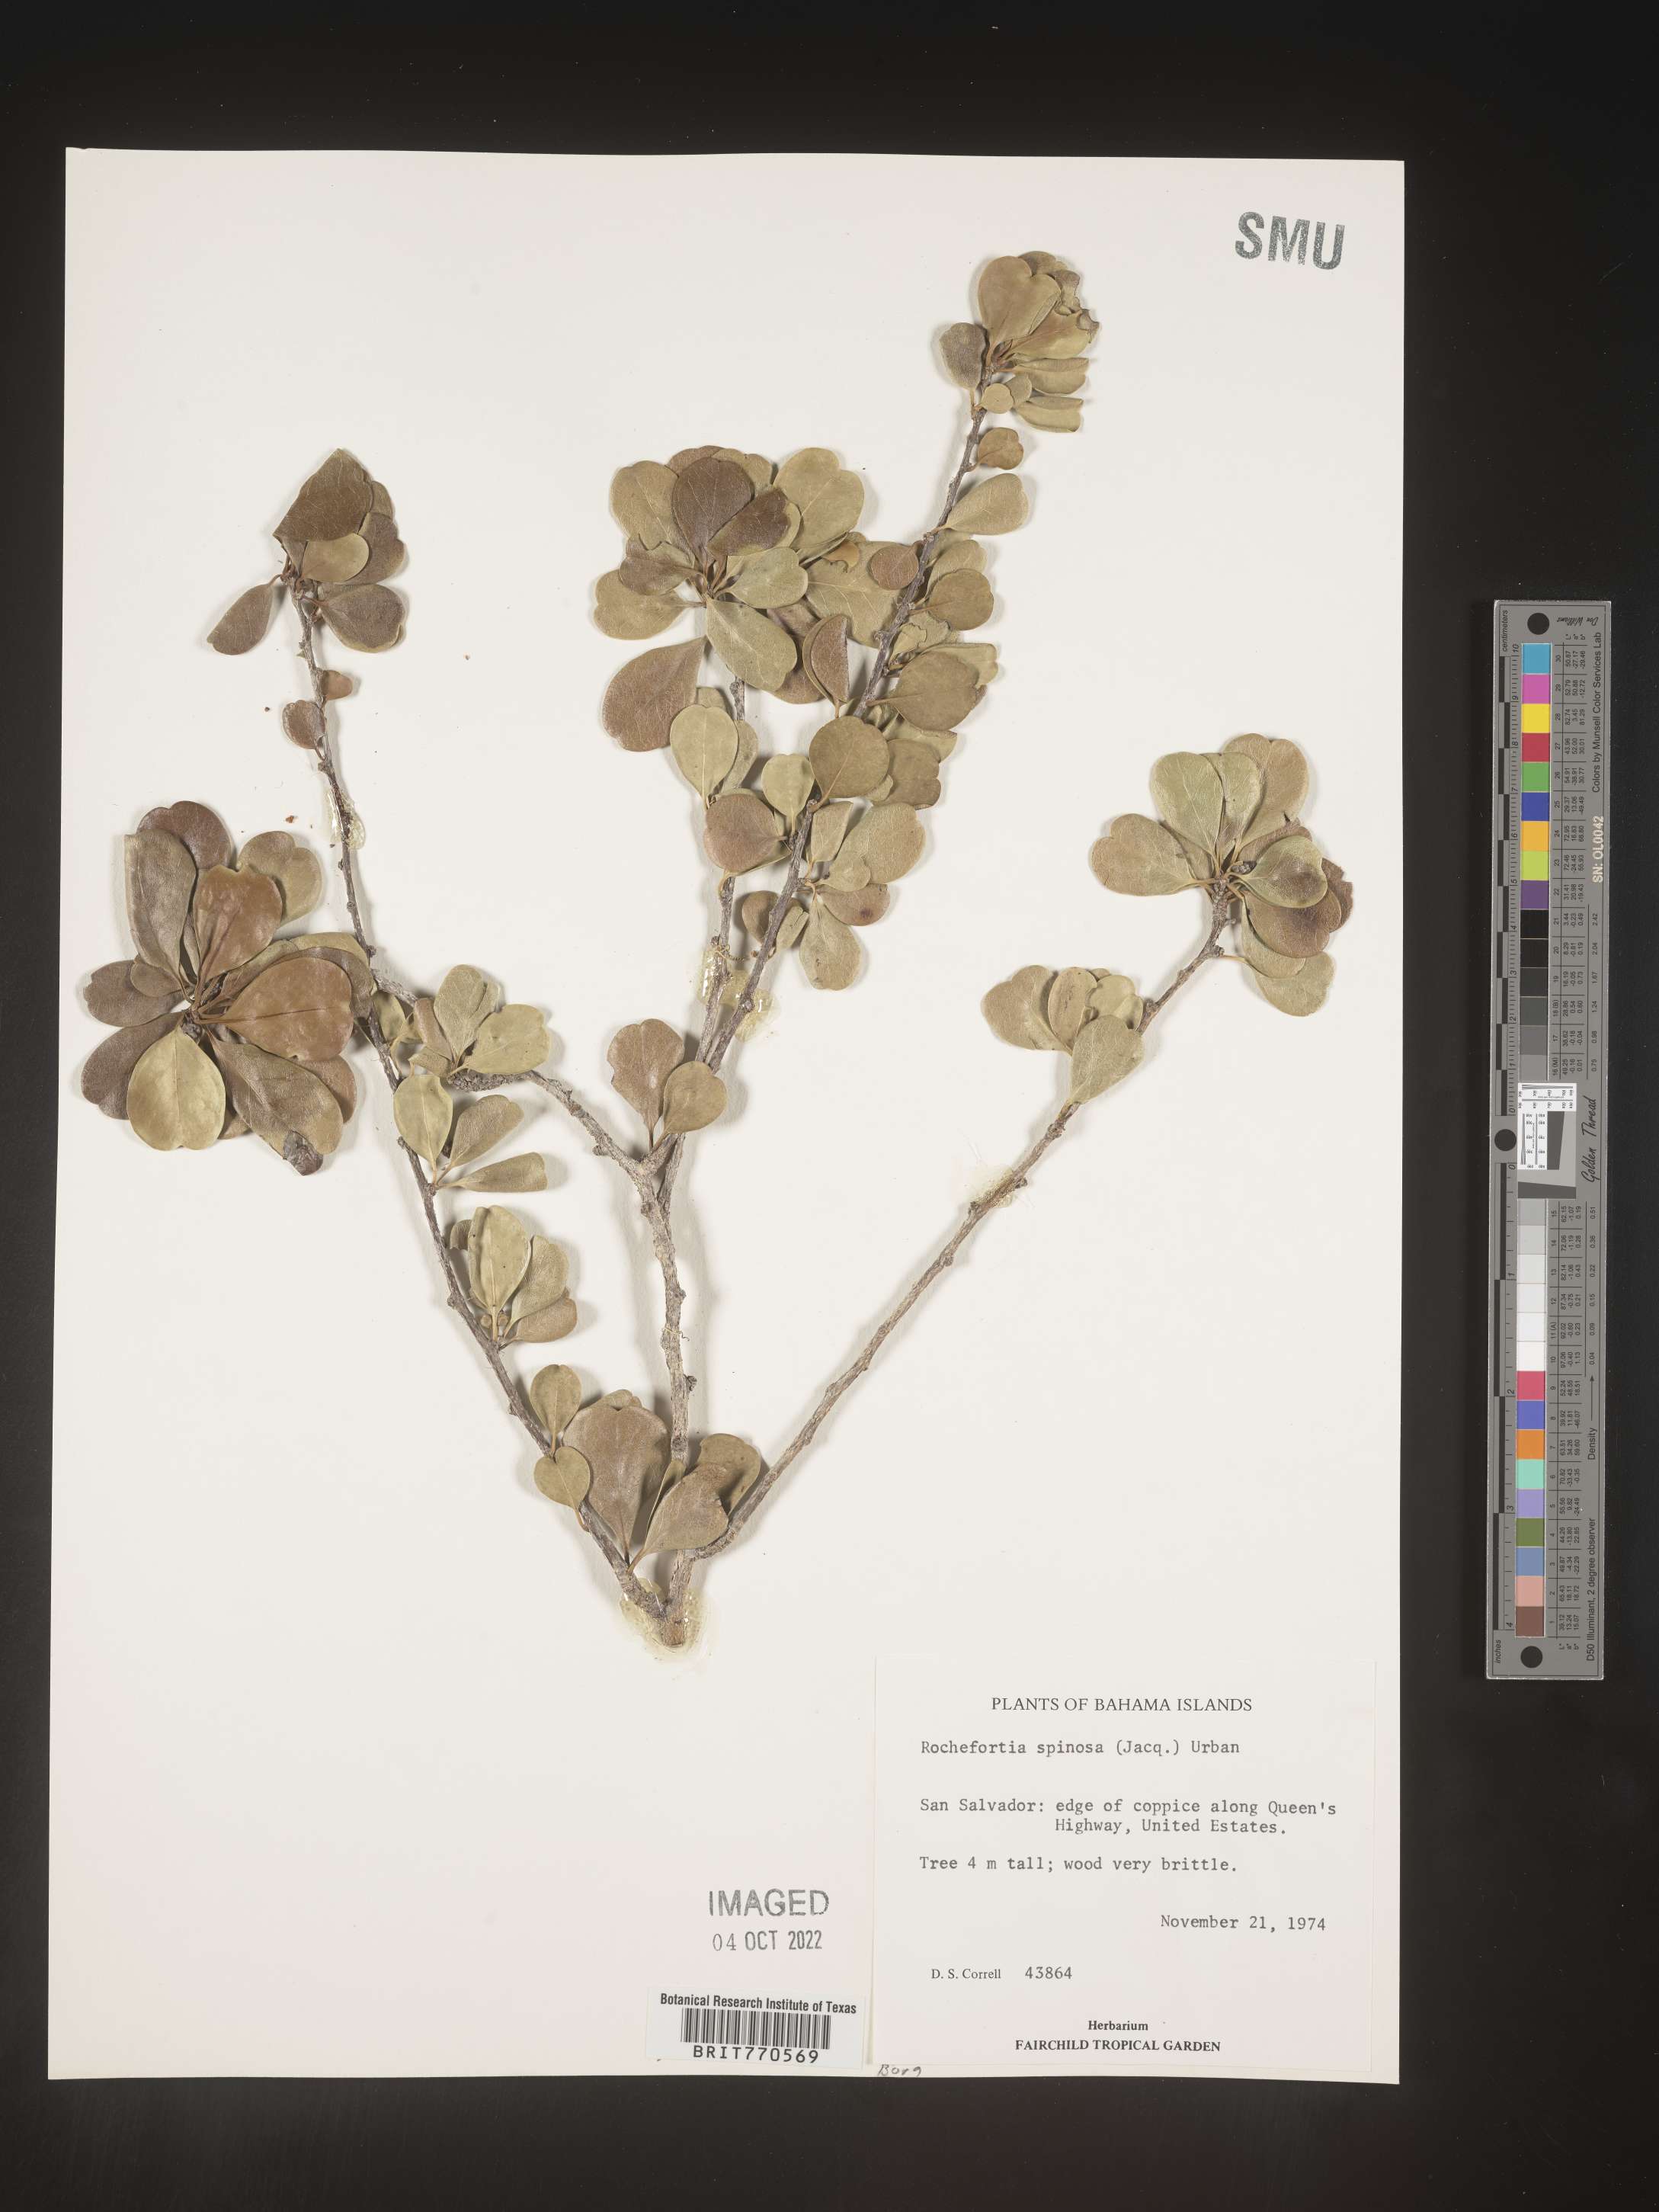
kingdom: Plantae
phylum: Tracheophyta
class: Magnoliopsida
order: Boraginales
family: Ehretiaceae
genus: Rochefortia
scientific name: Rochefortia
